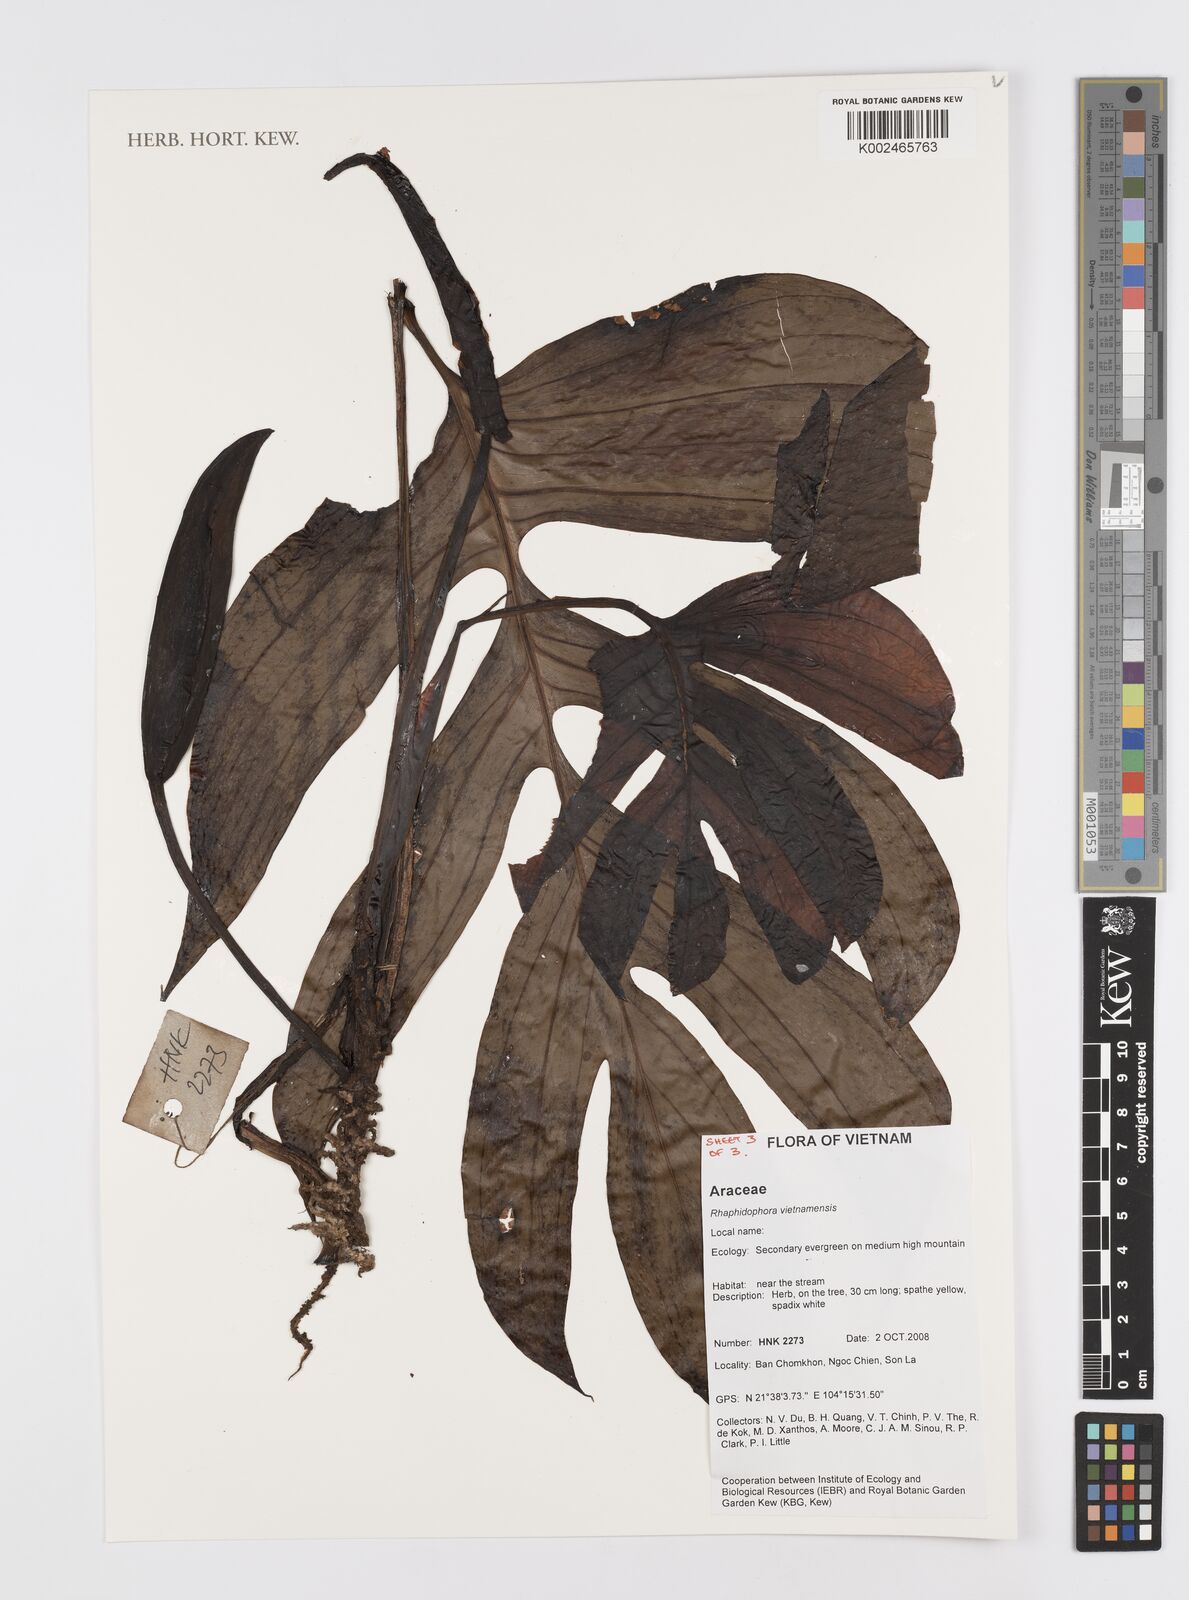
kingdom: Plantae
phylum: Tracheophyta
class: Liliopsida
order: Alismatales
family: Araceae
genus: Rhaphidophora
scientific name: Rhaphidophora
